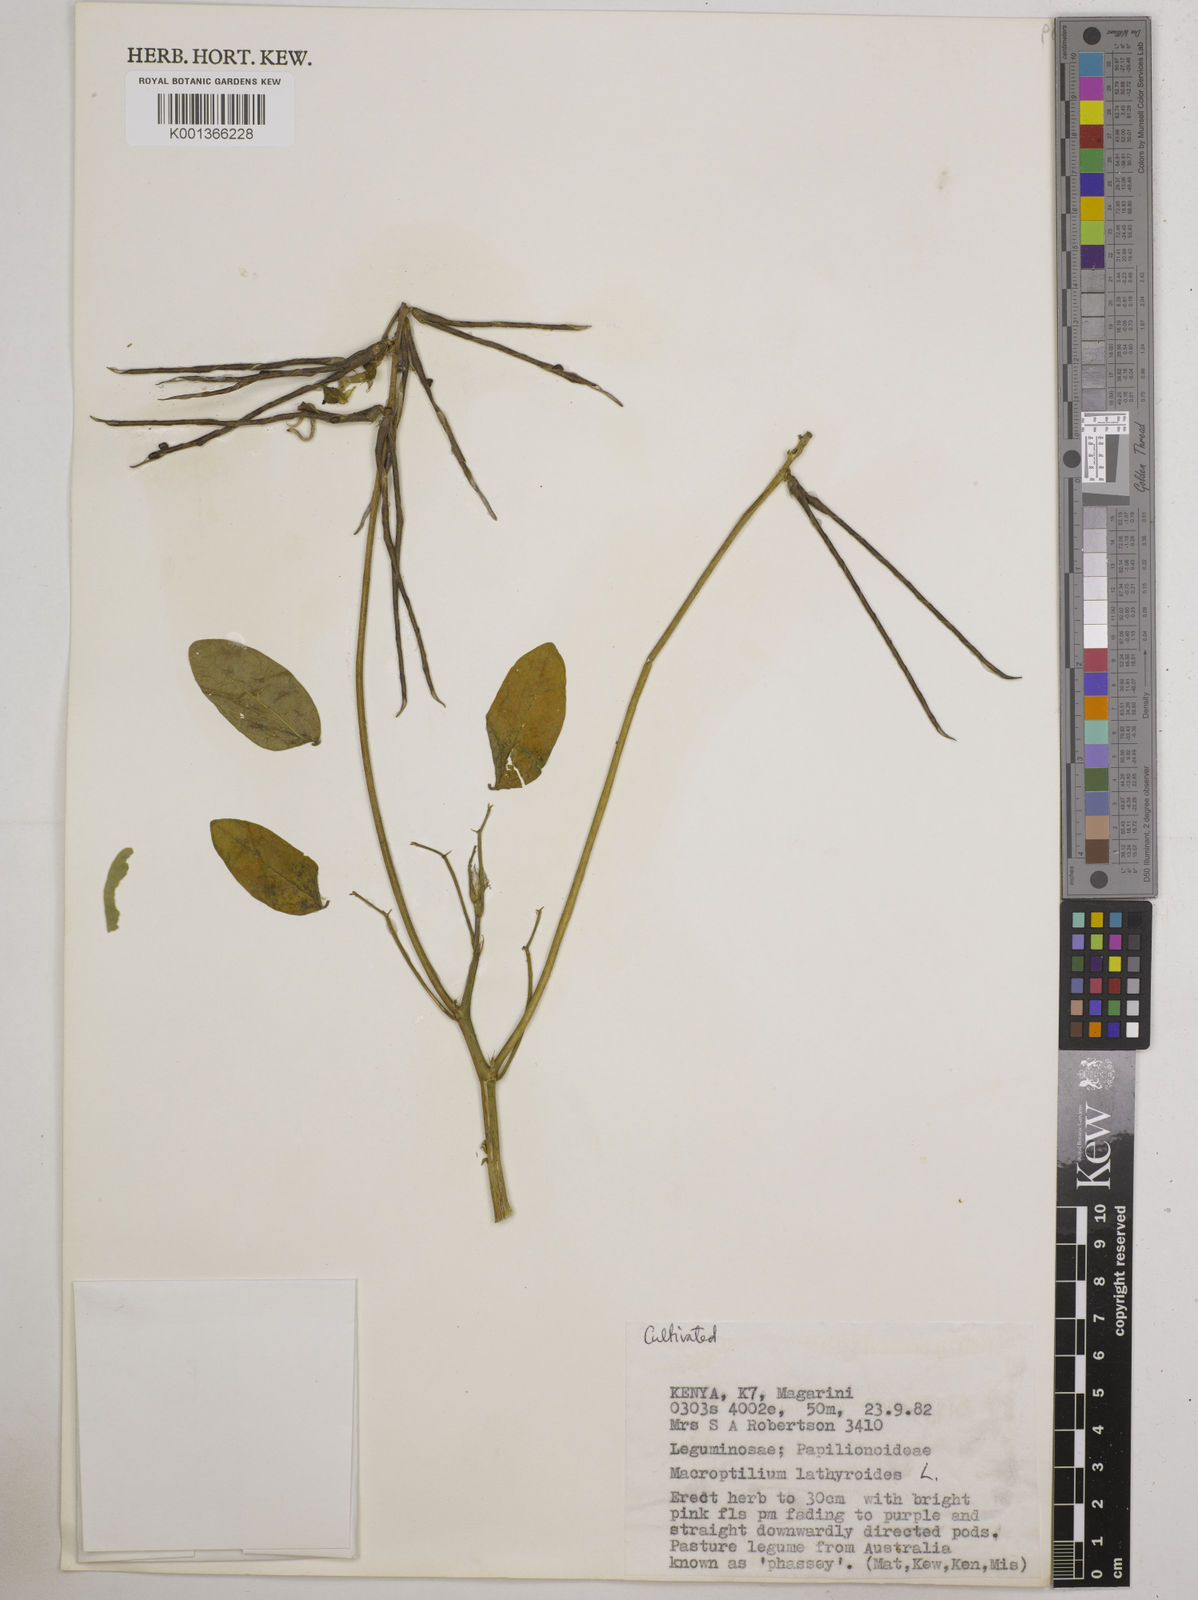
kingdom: Plantae
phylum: Tracheophyta
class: Magnoliopsida
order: Fabales
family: Fabaceae
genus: Macroptilium
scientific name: Macroptilium lathyroides
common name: Wild bushbean
